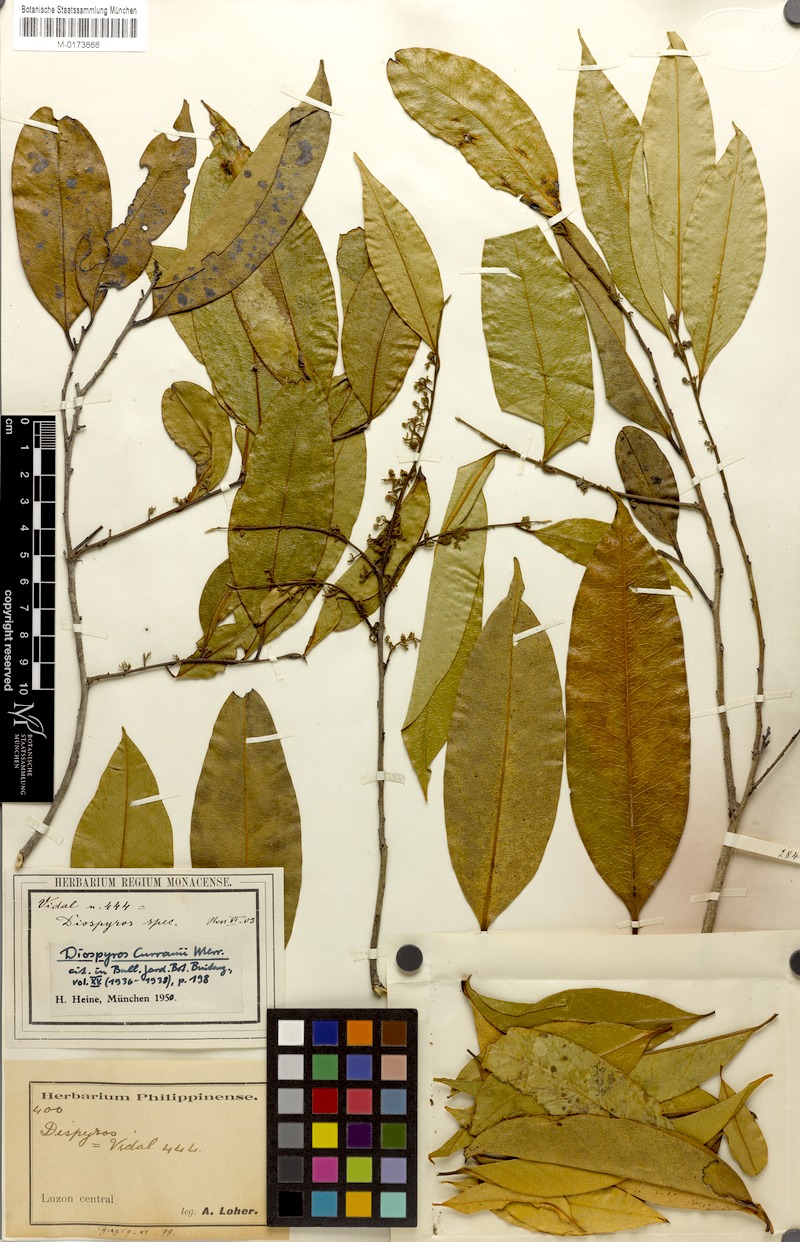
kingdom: Plantae
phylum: Tracheophyta
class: Magnoliopsida
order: Ericales
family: Ebenaceae
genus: Diospyros
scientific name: Diospyros curranii
